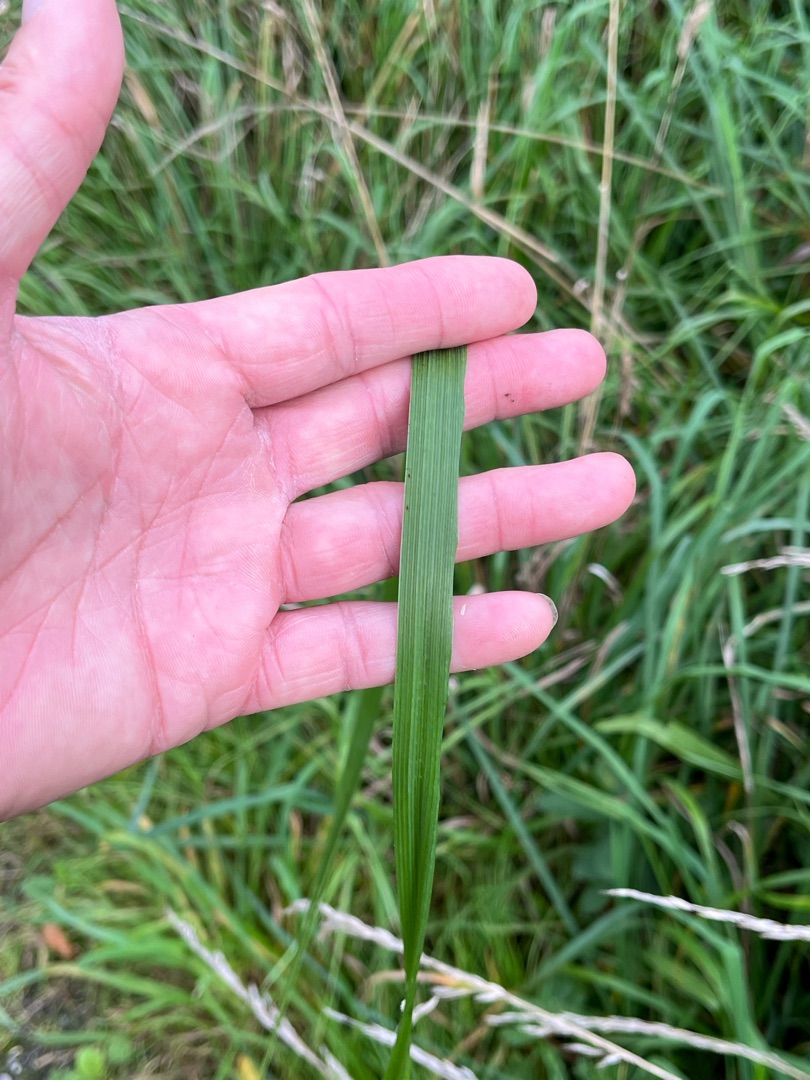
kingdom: Plantae
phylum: Tracheophyta
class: Liliopsida
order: Poales
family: Poaceae
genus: Lolium
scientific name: Lolium giganteum
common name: Kæmpe-svingel
